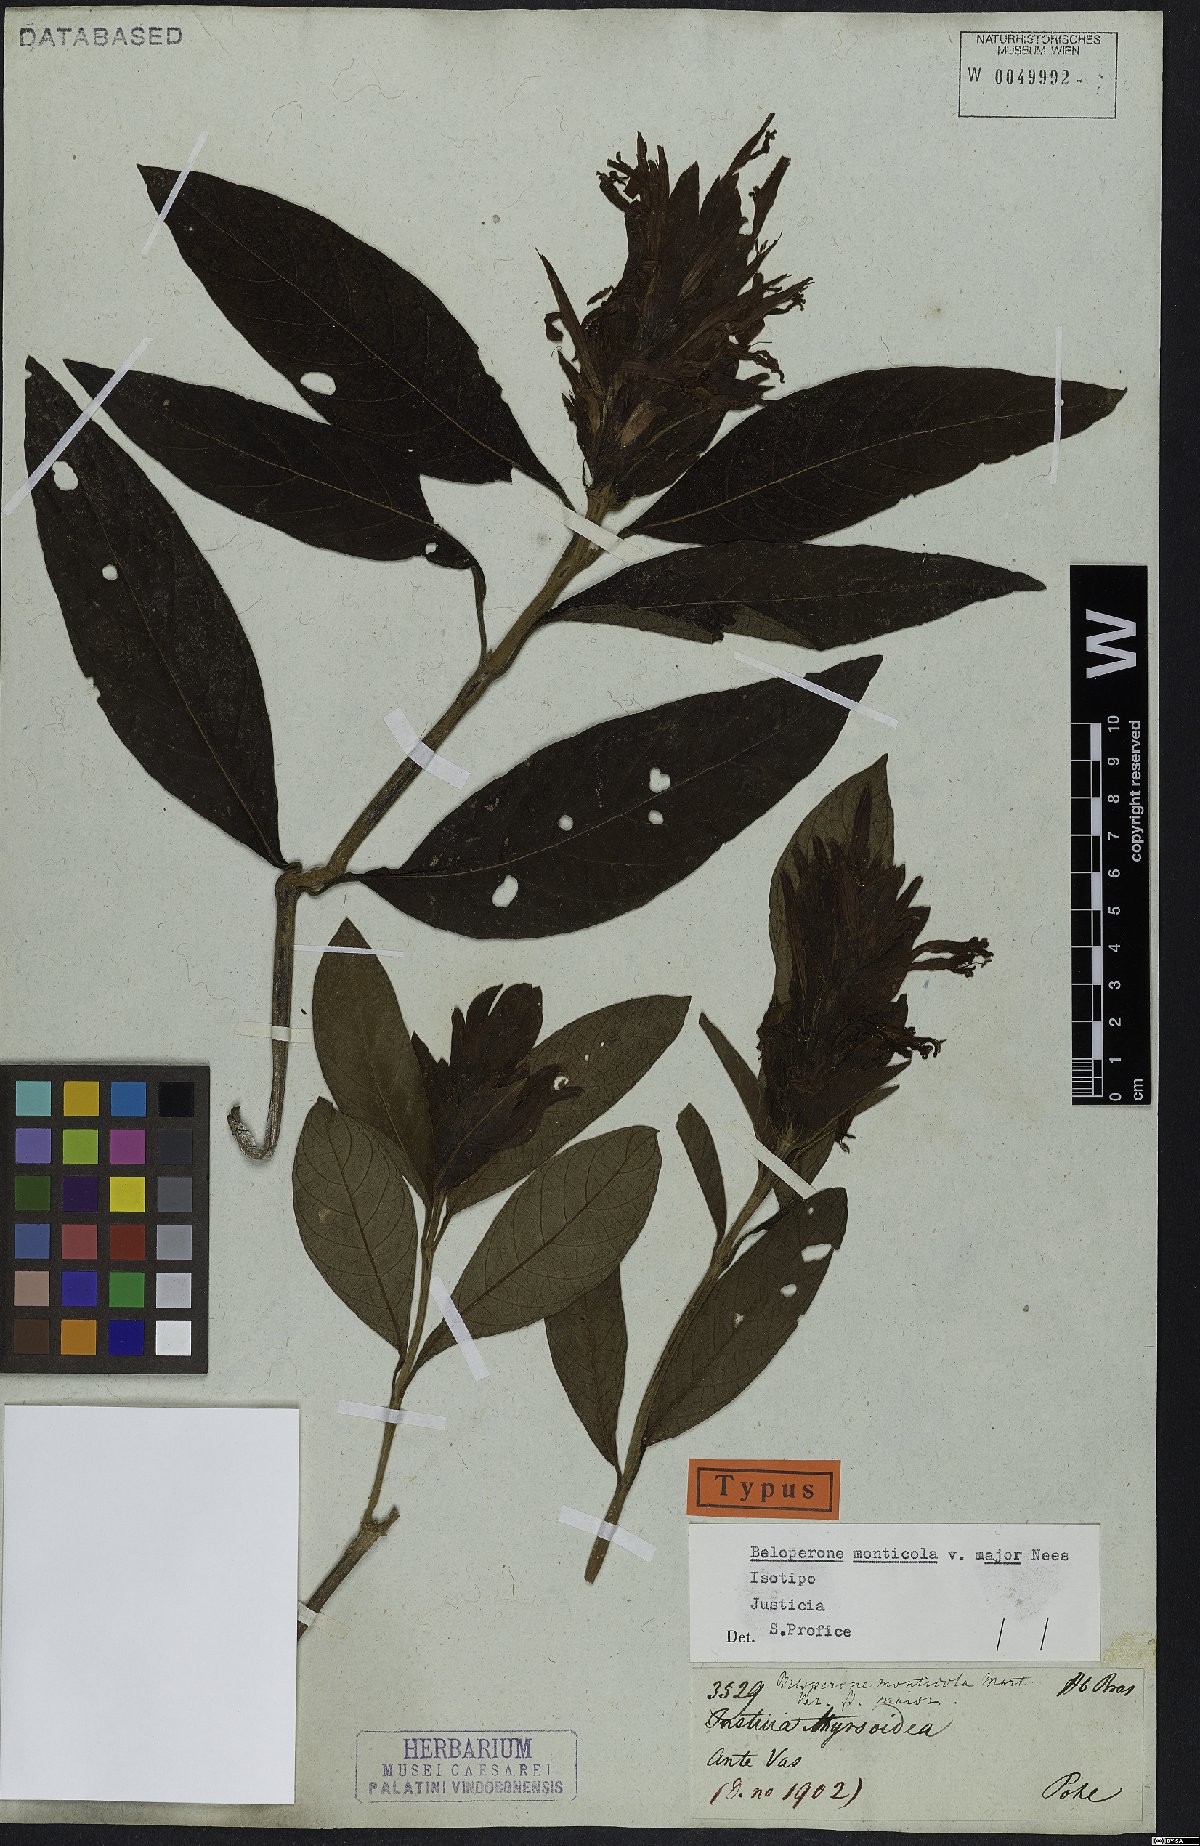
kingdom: Plantae
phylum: Tracheophyta
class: Magnoliopsida
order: Lamiales
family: Acanthaceae
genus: Lepidagathis
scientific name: Lepidagathis Lophostachys monticola
